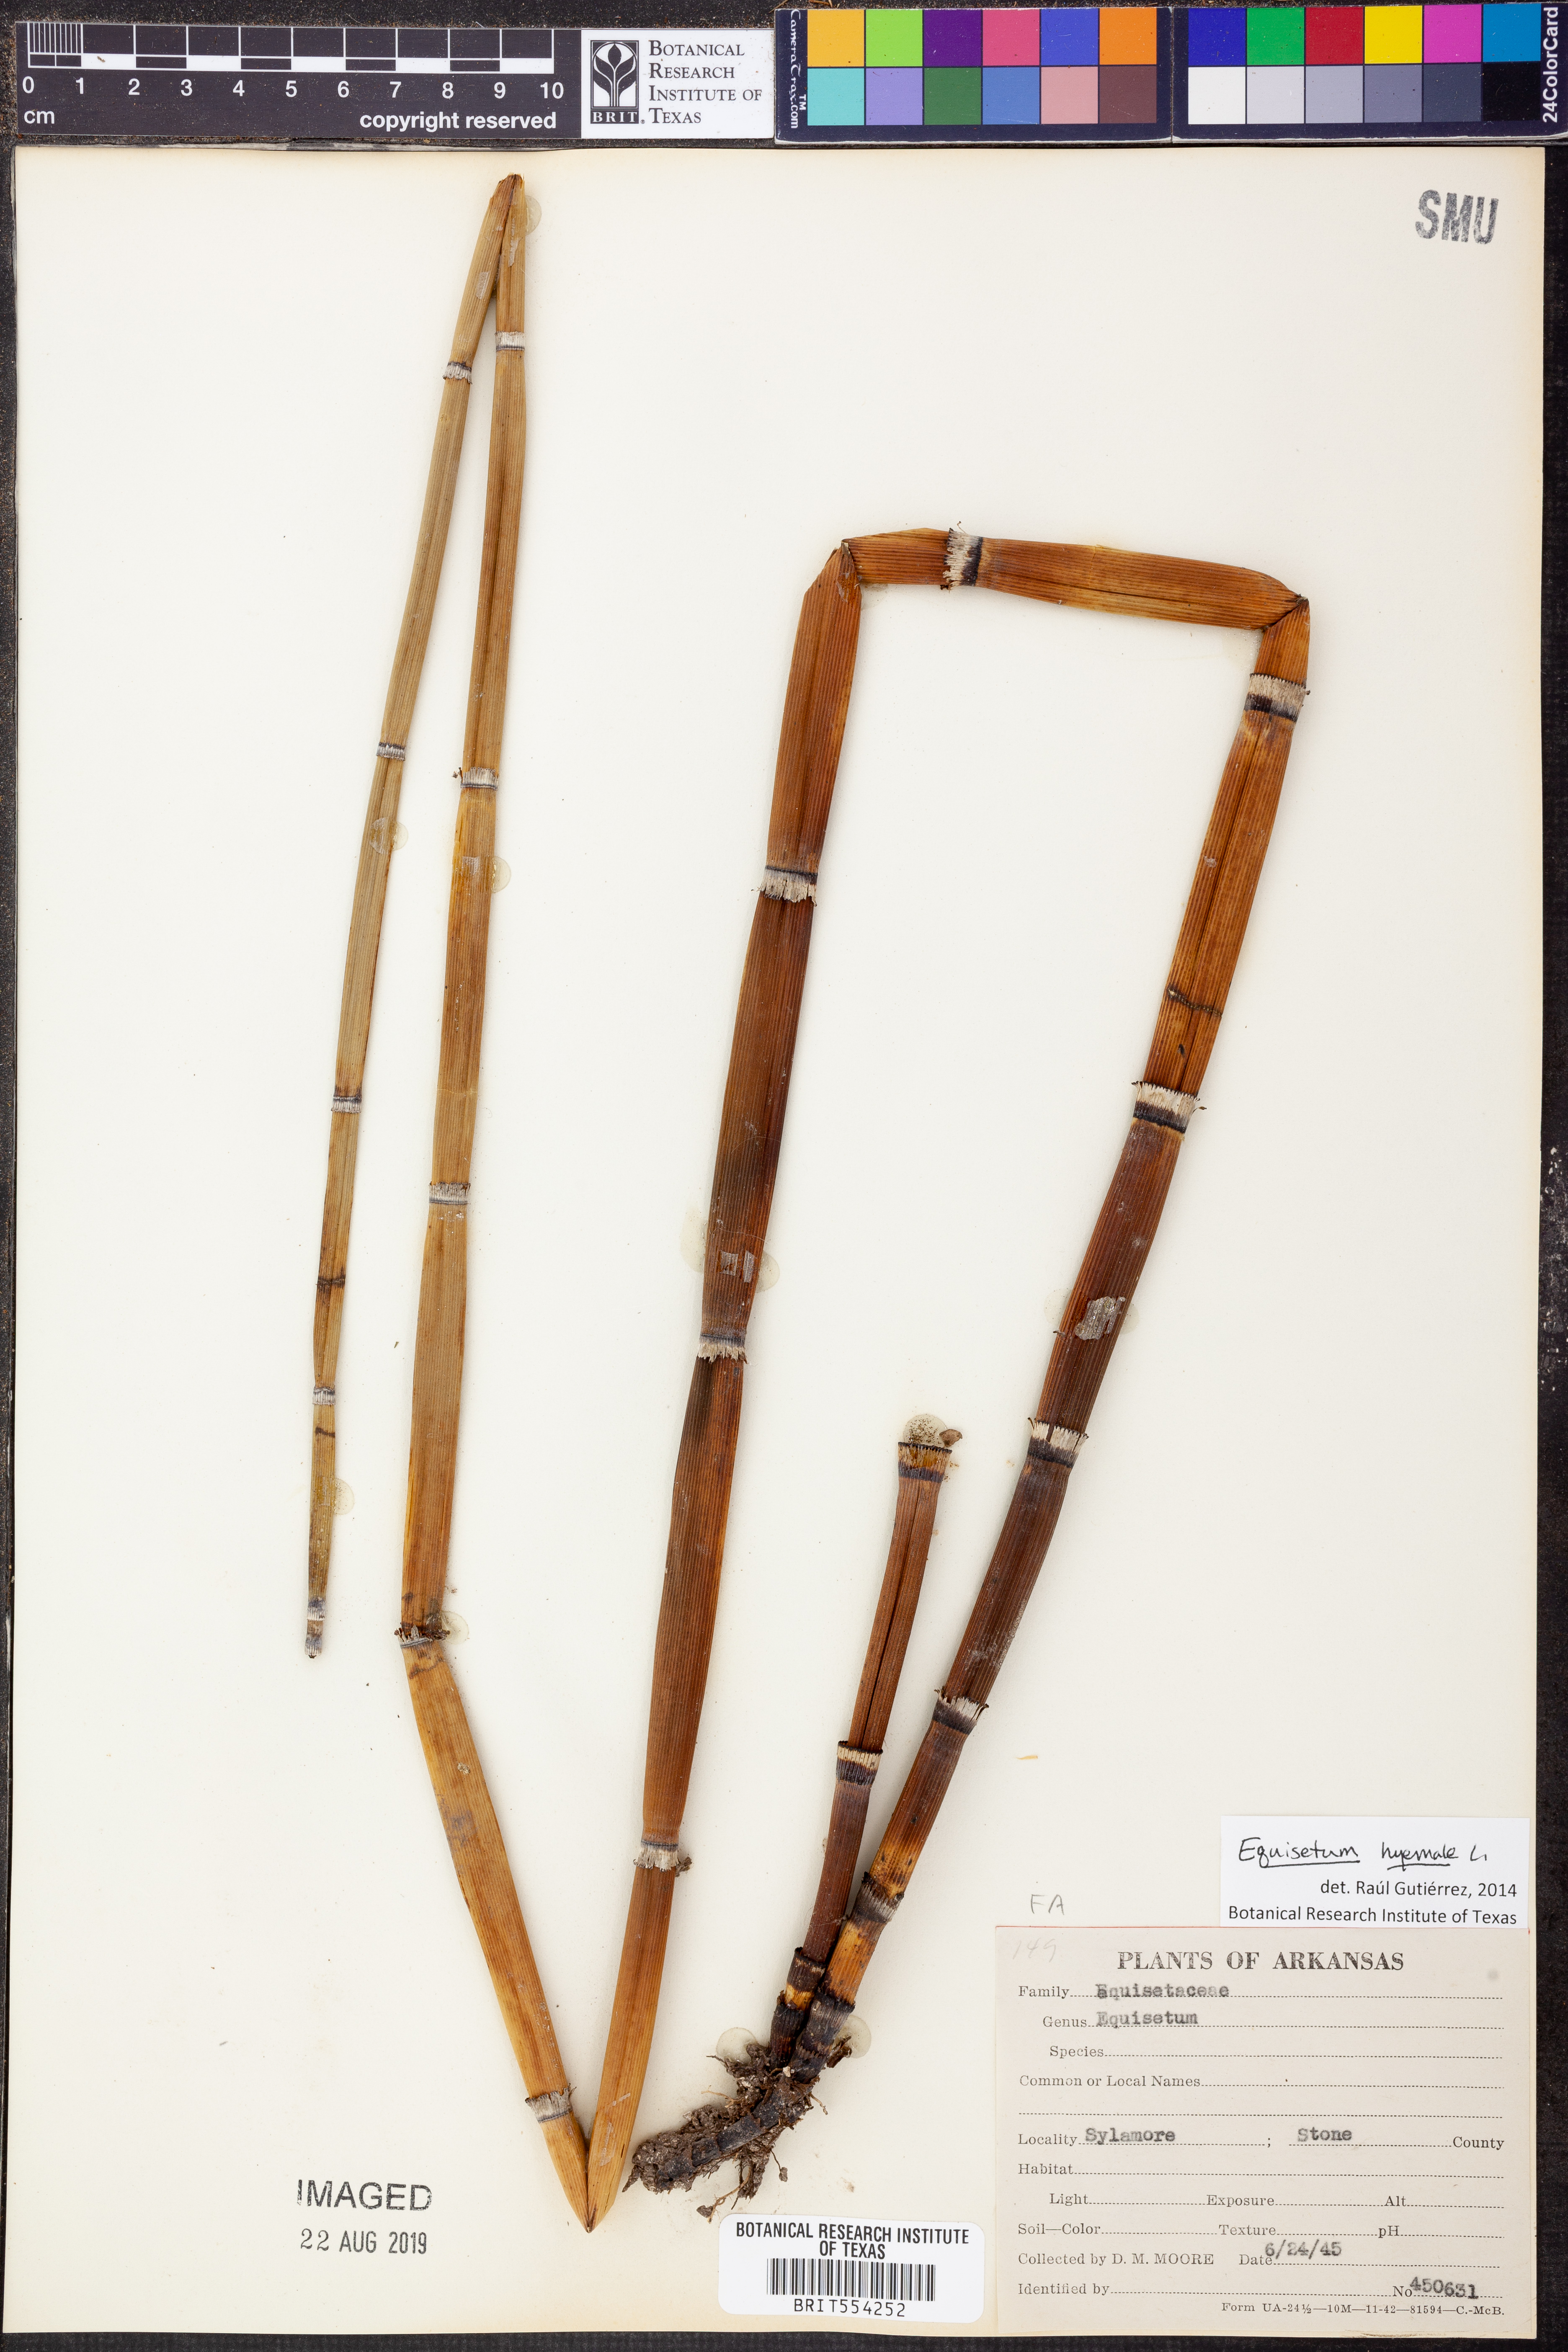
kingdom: Plantae
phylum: Tracheophyta
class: Polypodiopsida
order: Equisetales
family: Equisetaceae
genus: Equisetum
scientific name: Equisetum hyemale
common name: Rough horsetail
